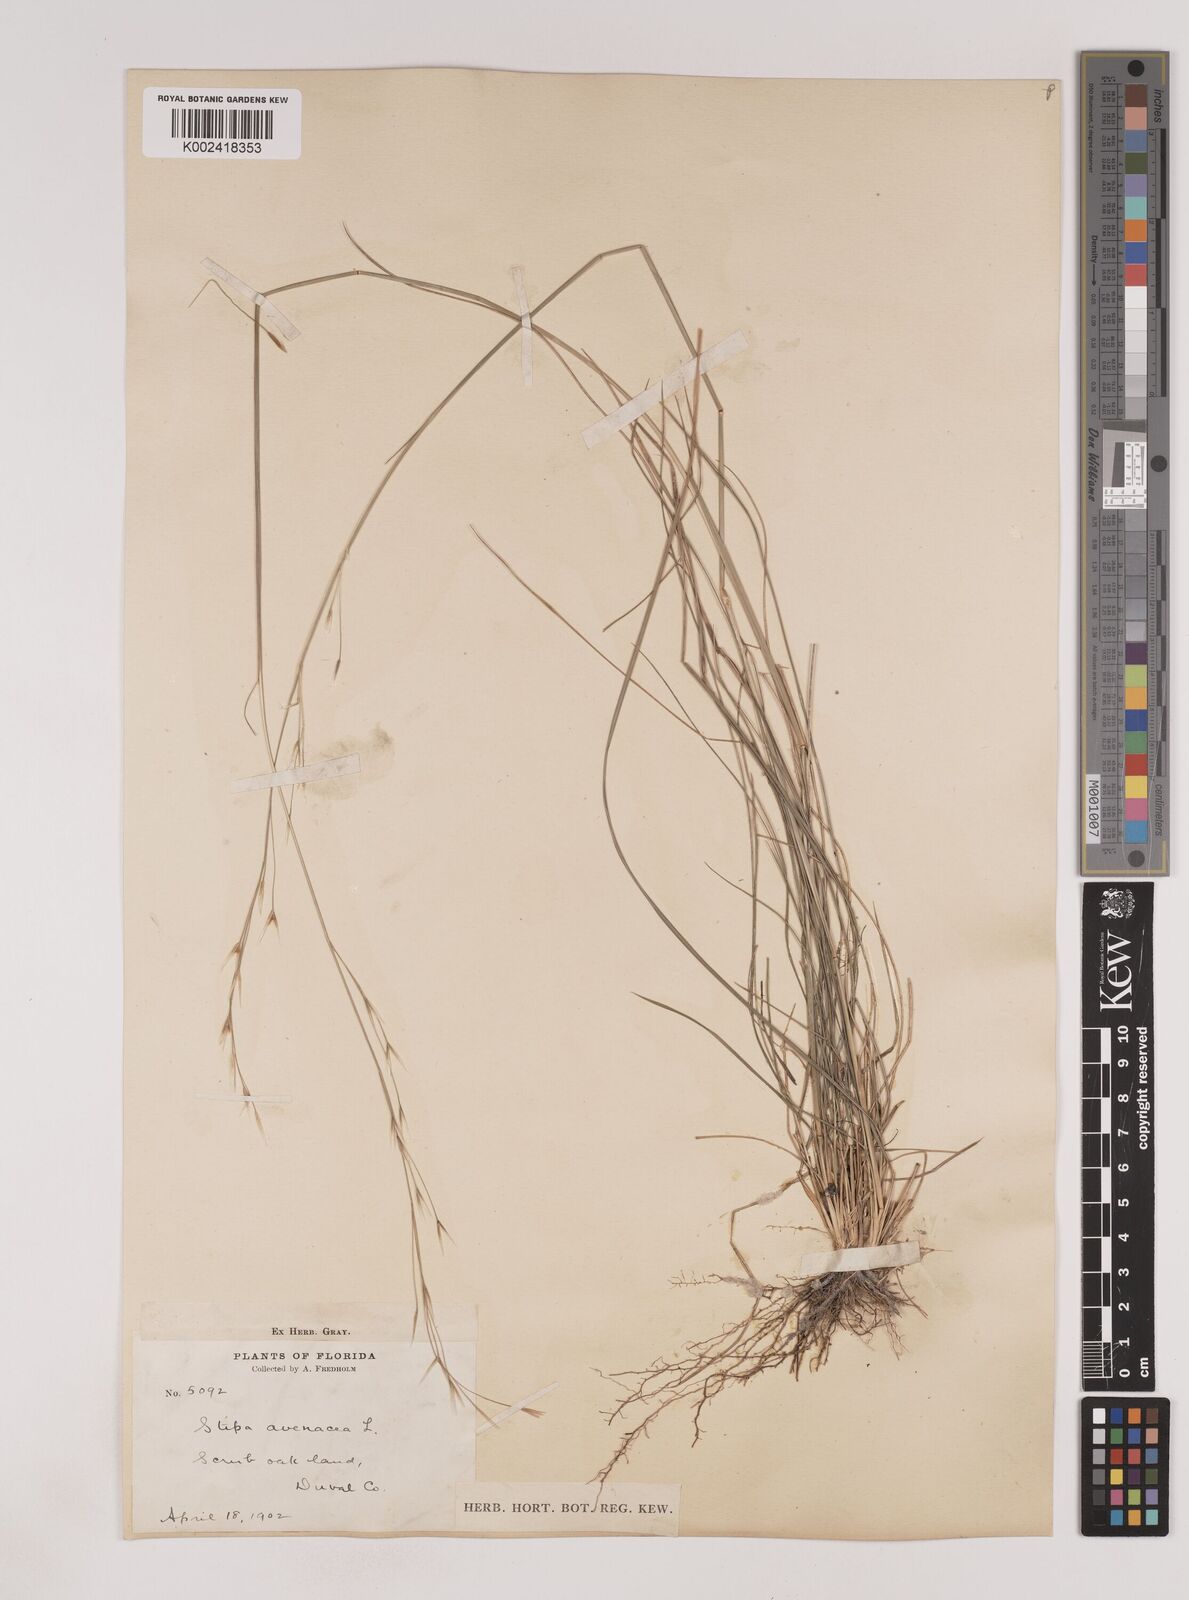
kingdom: Plantae
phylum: Tracheophyta
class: Liliopsida
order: Poales
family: Poaceae
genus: Piptochaetium
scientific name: Piptochaetium avenaceum
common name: Black bunchgrass
